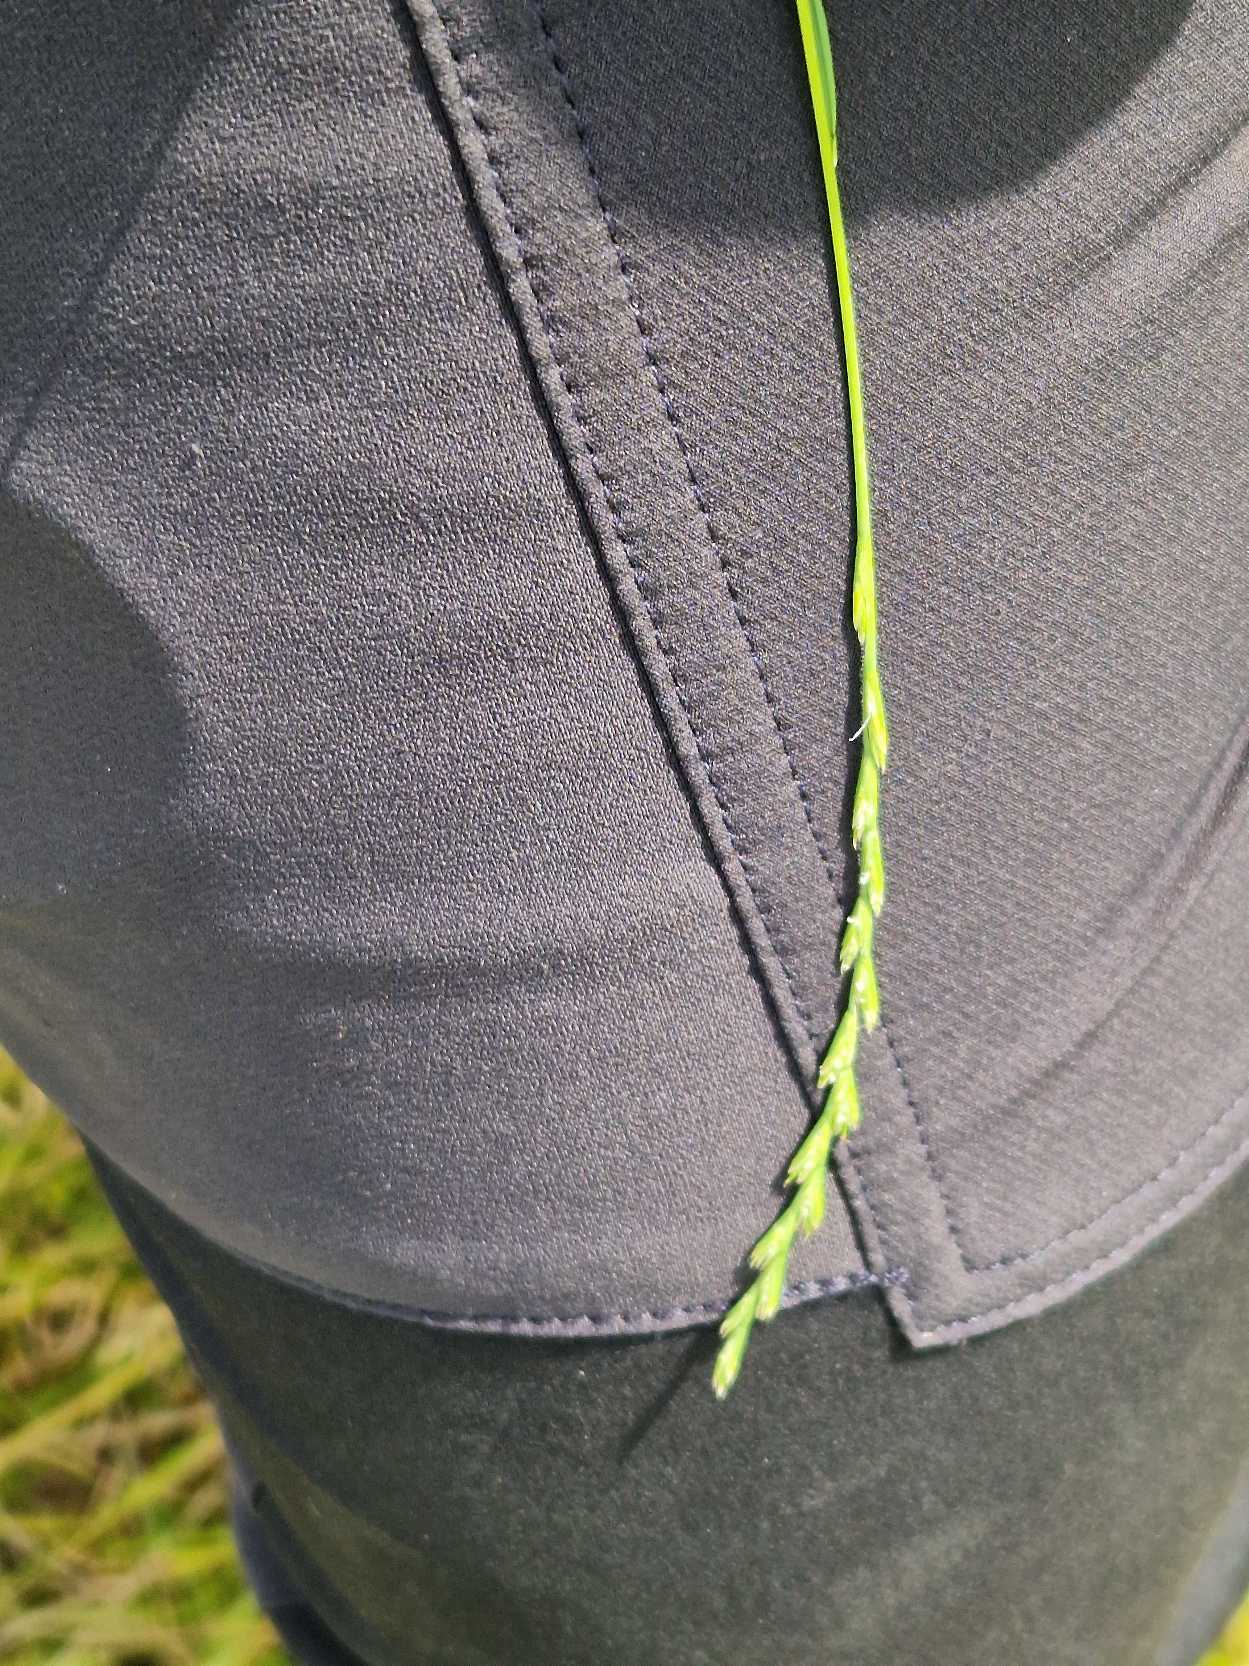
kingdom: Plantae
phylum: Tracheophyta
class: Liliopsida
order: Poales
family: Poaceae
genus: Lolium
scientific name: Lolium perenne
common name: Almindelig rajgræs
